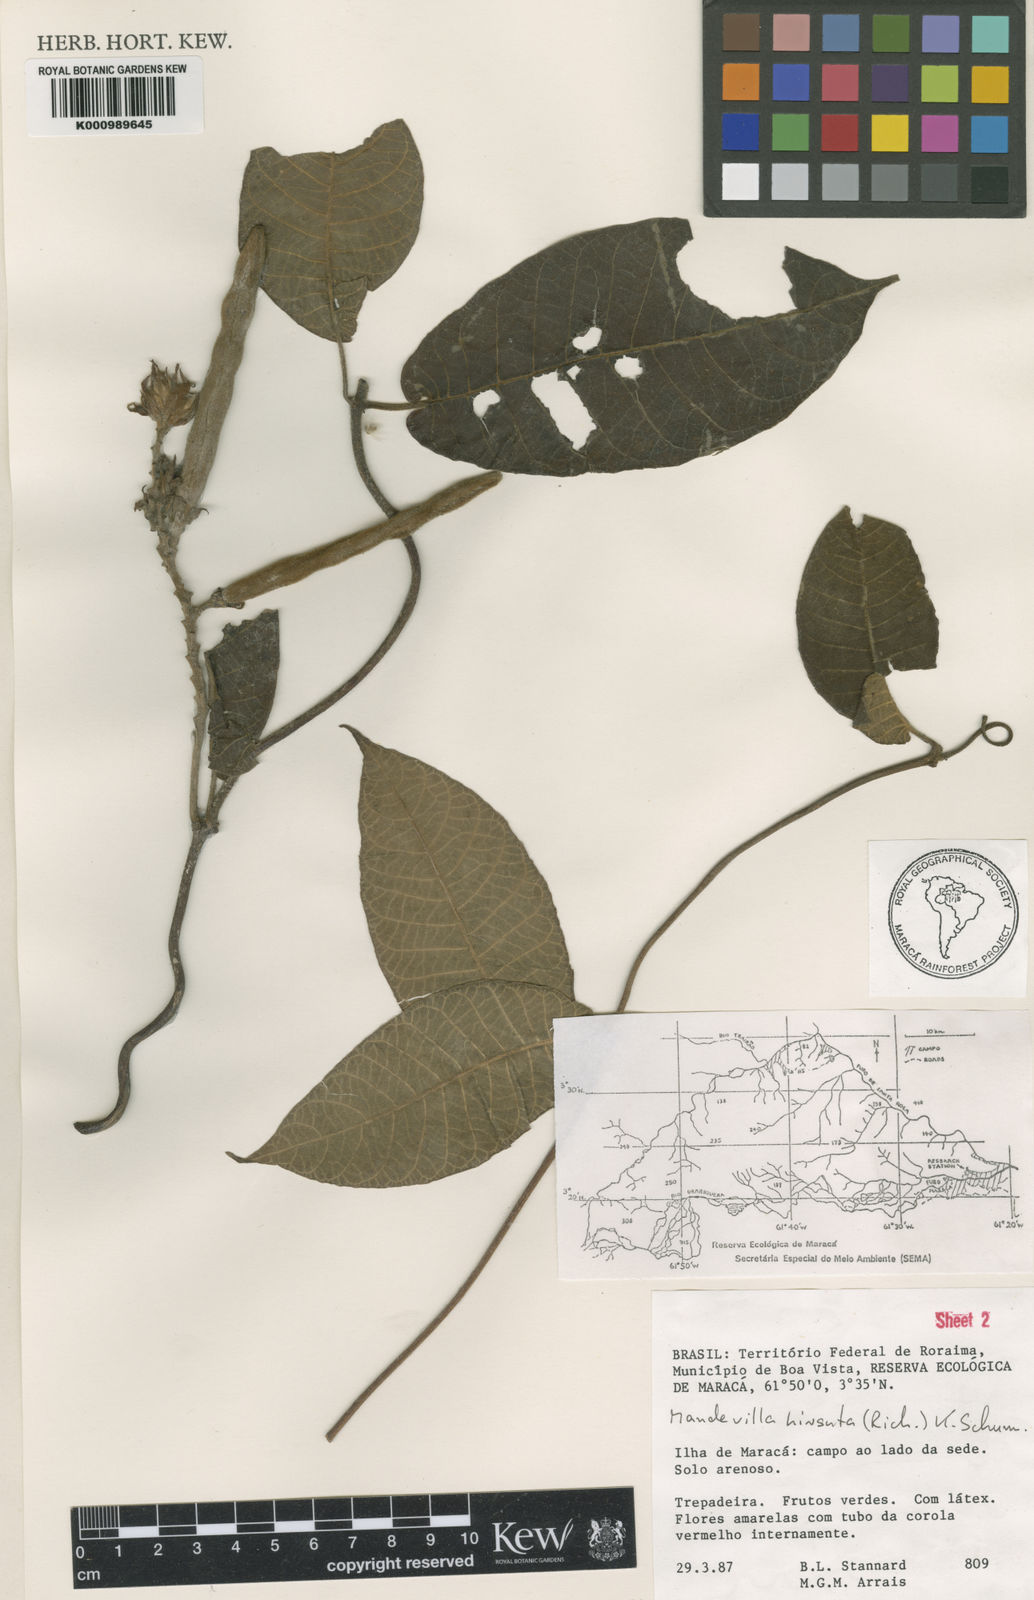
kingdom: Plantae
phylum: Tracheophyta
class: Magnoliopsida
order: Gentianales
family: Apocynaceae
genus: Mandevilla
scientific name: Mandevilla hirsuta
